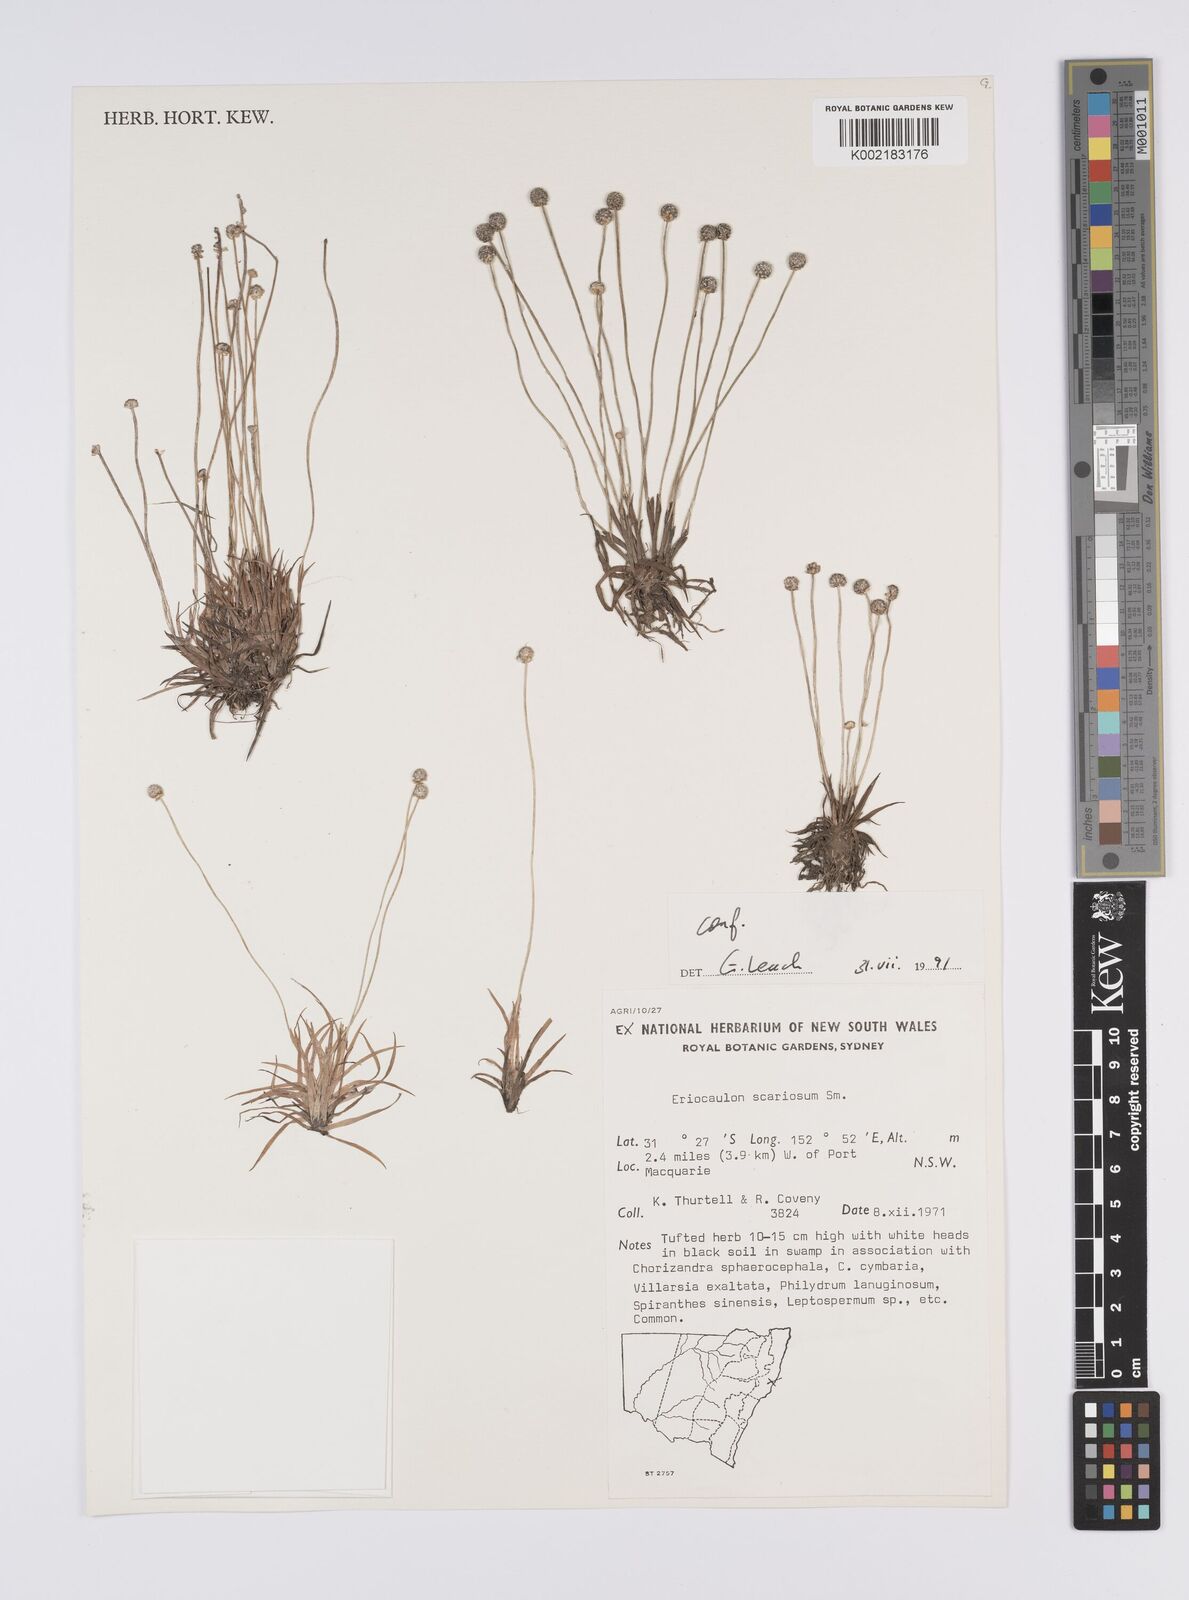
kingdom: Plantae
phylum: Tracheophyta
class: Liliopsida
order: Poales
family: Eriocaulaceae
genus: Eriocaulon
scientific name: Eriocaulon scariosum
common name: Rough pipewort
